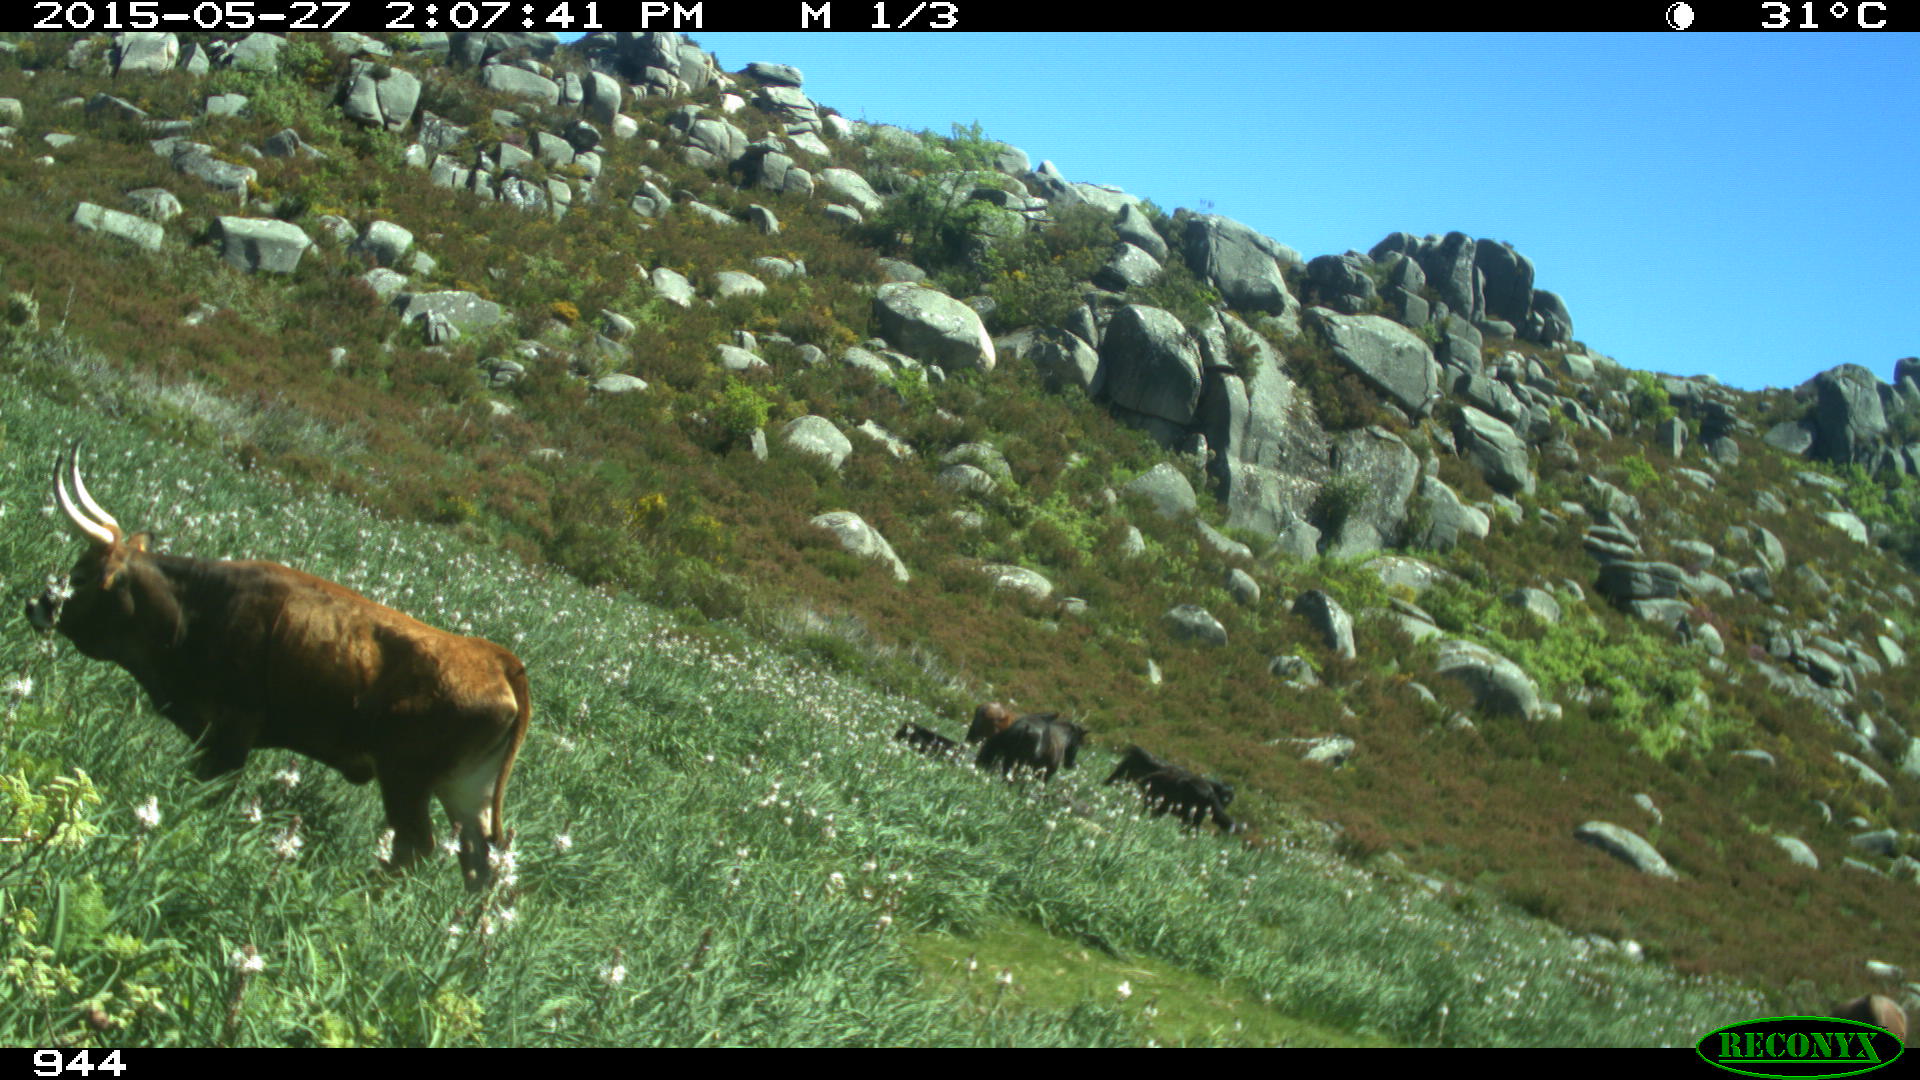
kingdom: Animalia
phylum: Chordata
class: Mammalia
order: Perissodactyla
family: Equidae
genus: Equus
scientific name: Equus caballus
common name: Horse
